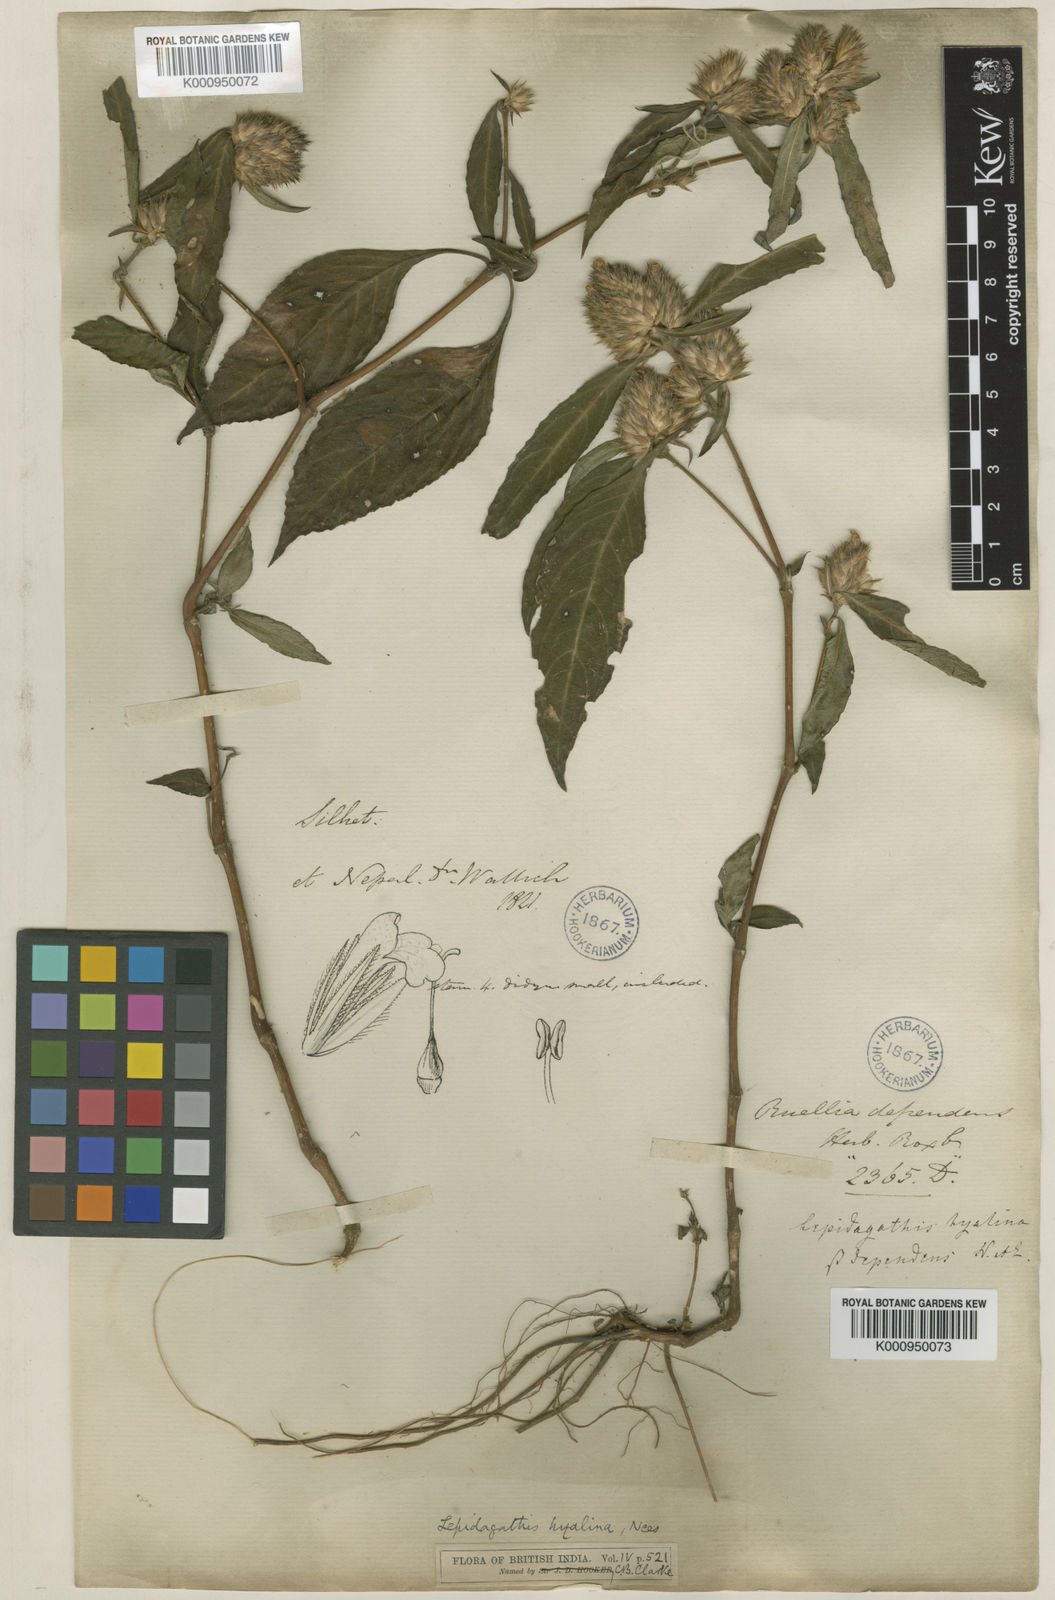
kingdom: Plantae
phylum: Tracheophyta
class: Magnoliopsida
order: Lamiales
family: Acanthaceae
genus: Lepidagathis
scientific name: Lepidagathis incurva
